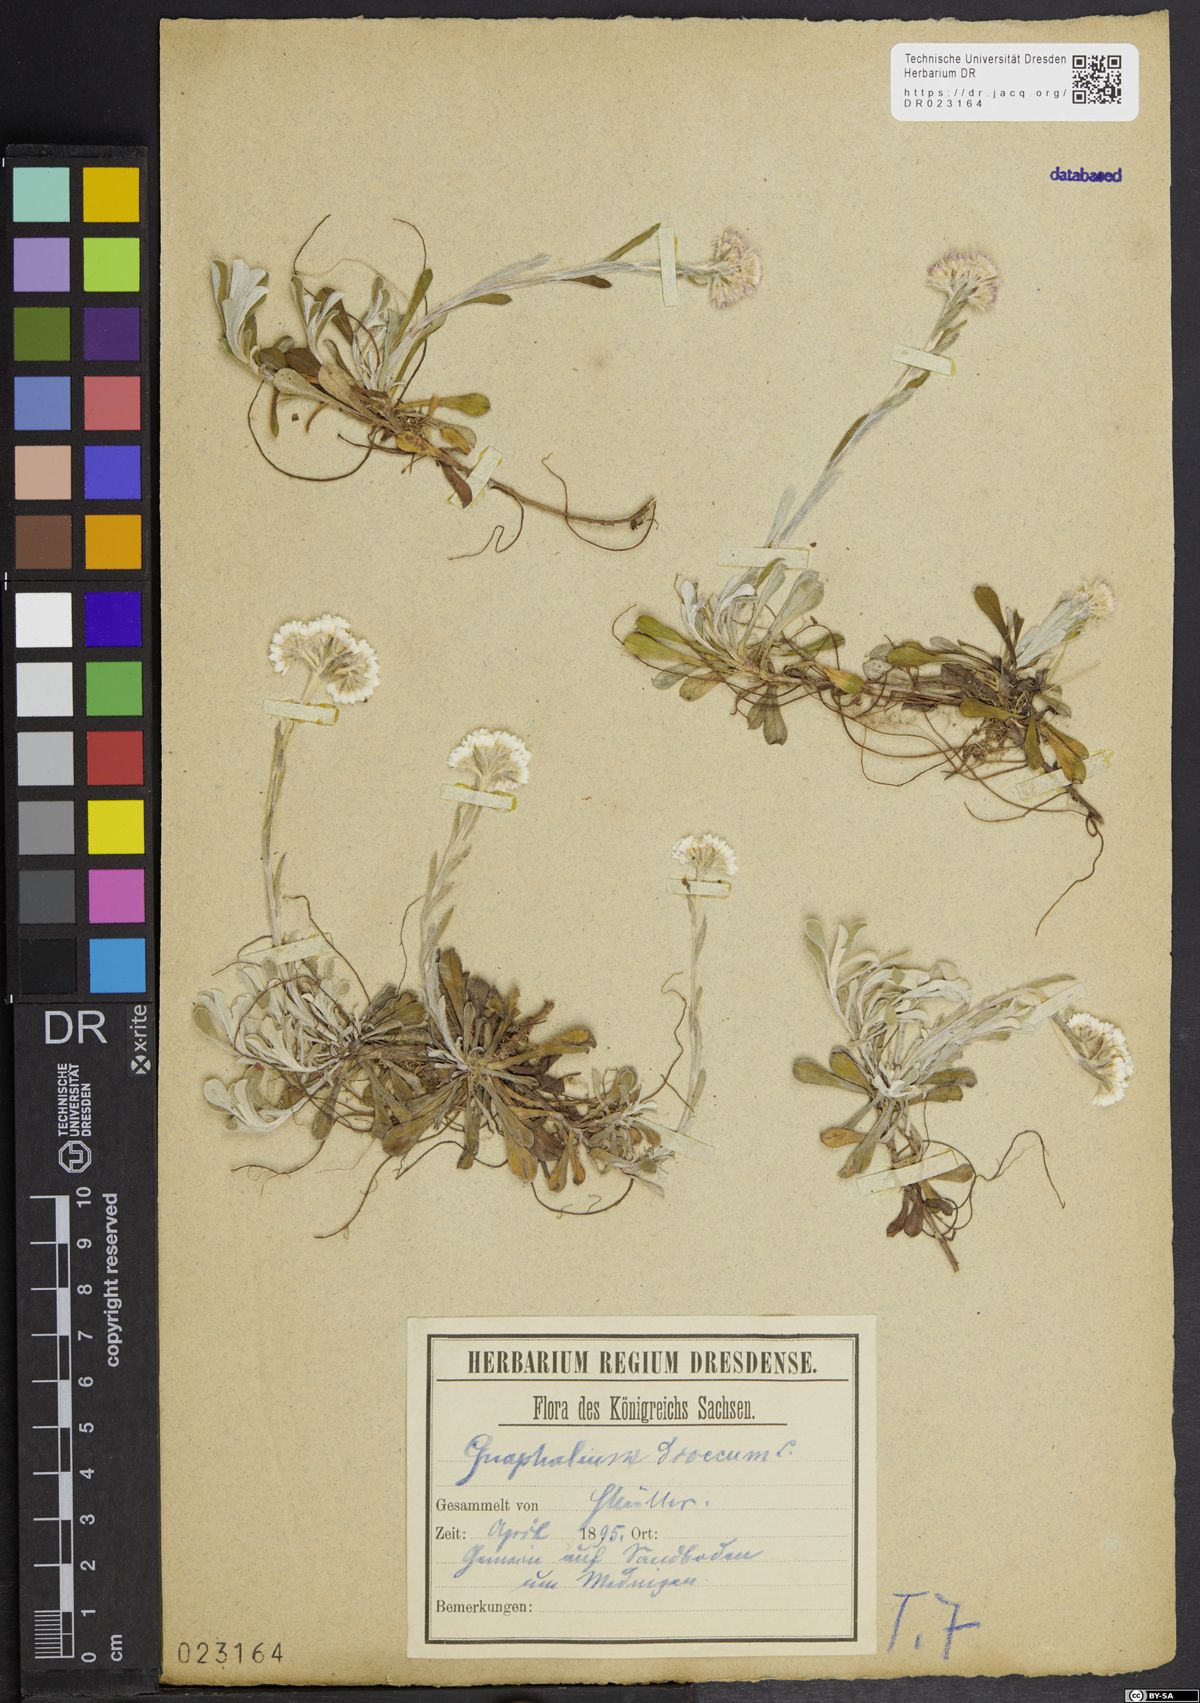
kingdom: Plantae
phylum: Tracheophyta
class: Magnoliopsida
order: Asterales
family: Asteraceae
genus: Antennaria
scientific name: Antennaria dioica
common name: Mountain everlasting
